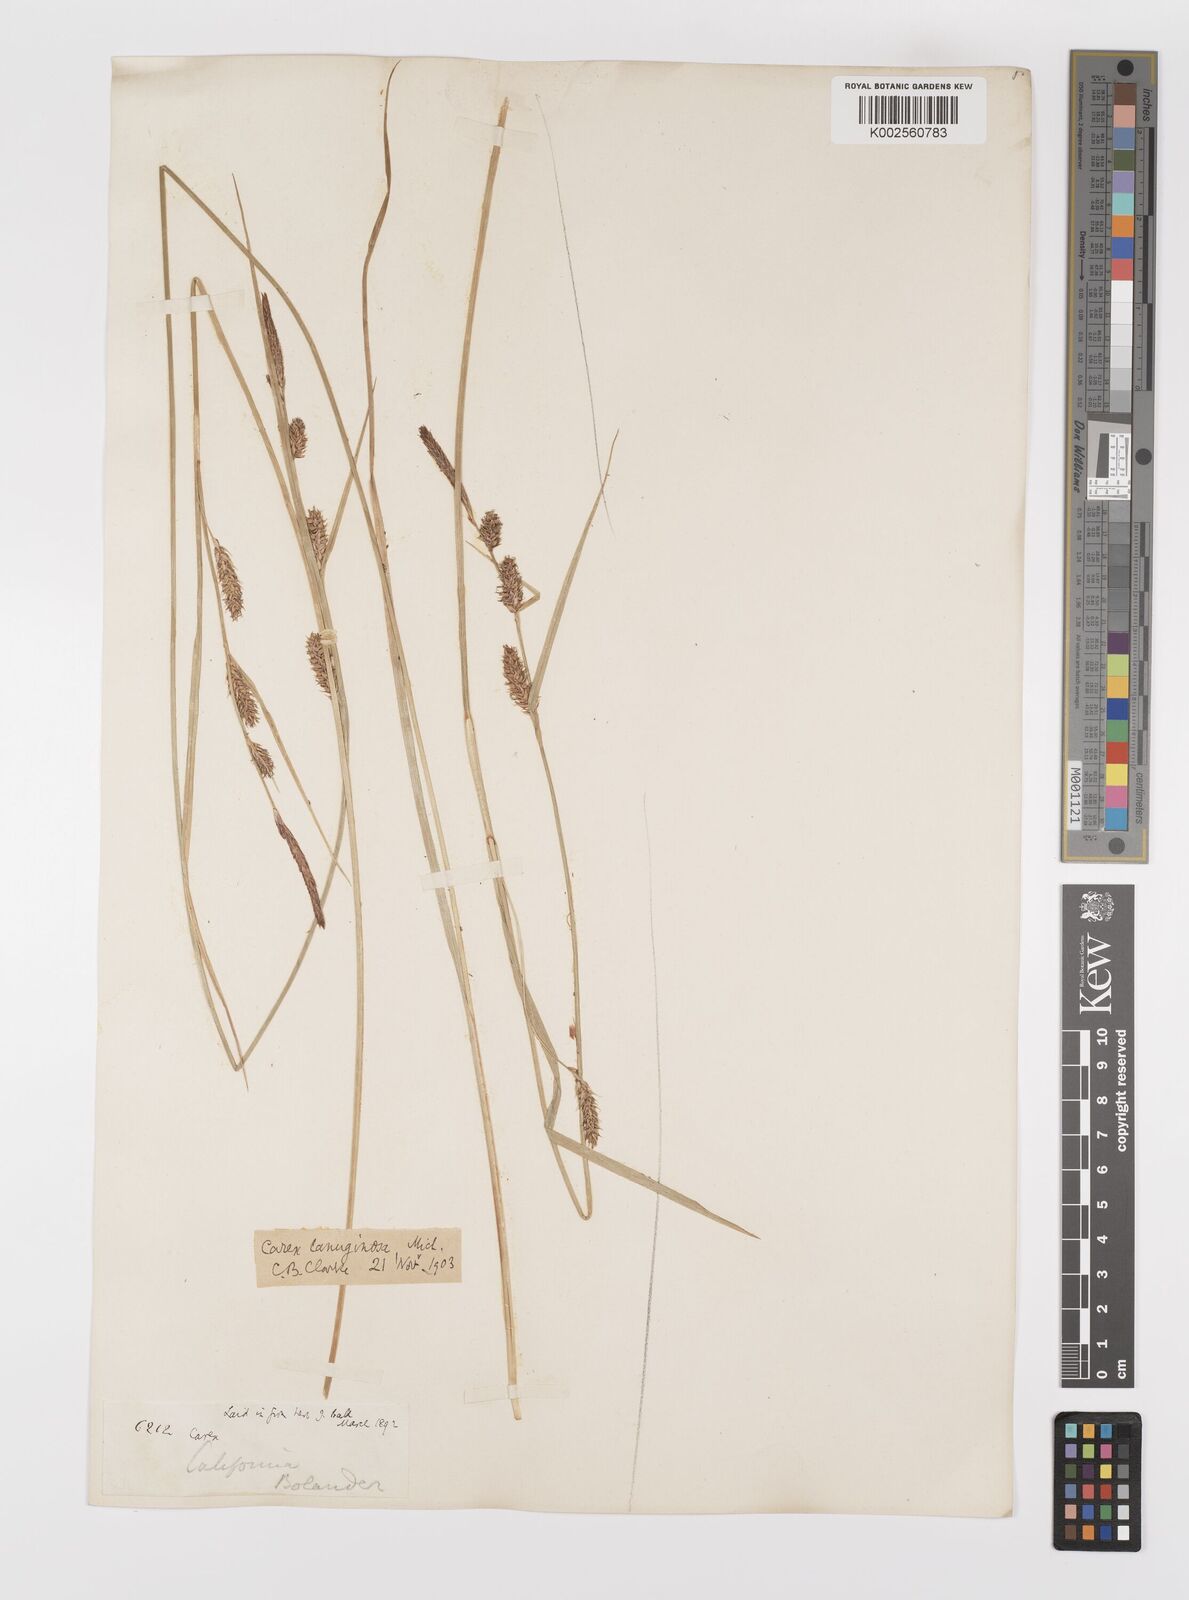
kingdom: Plantae
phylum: Tracheophyta
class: Liliopsida
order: Poales
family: Cyperaceae
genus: Carex
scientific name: Carex lasiocarpa
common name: Slender sedge
